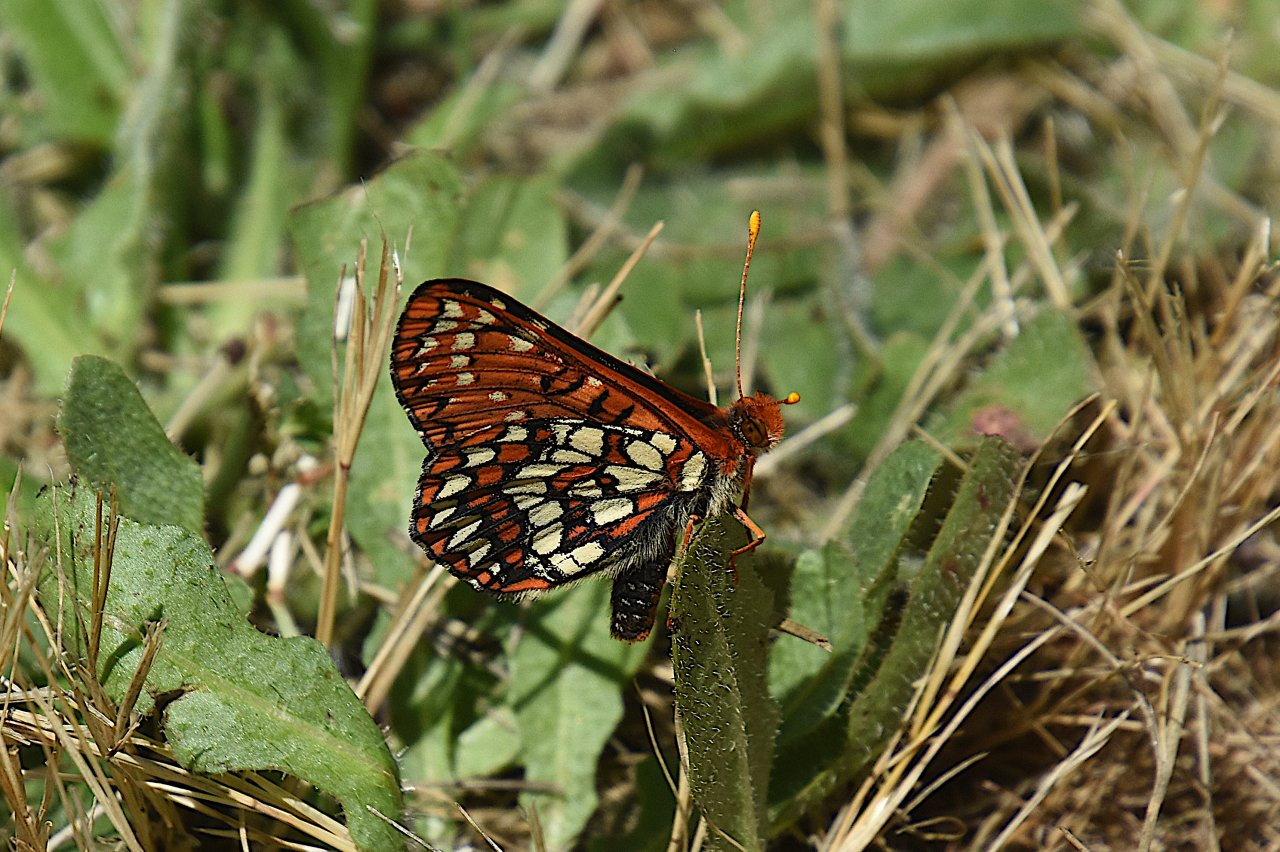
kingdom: Animalia
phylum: Arthropoda
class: Insecta
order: Lepidoptera
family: Nymphalidae
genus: Occidryas
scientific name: Occidryas colon
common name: Snowberry Checkerspot
